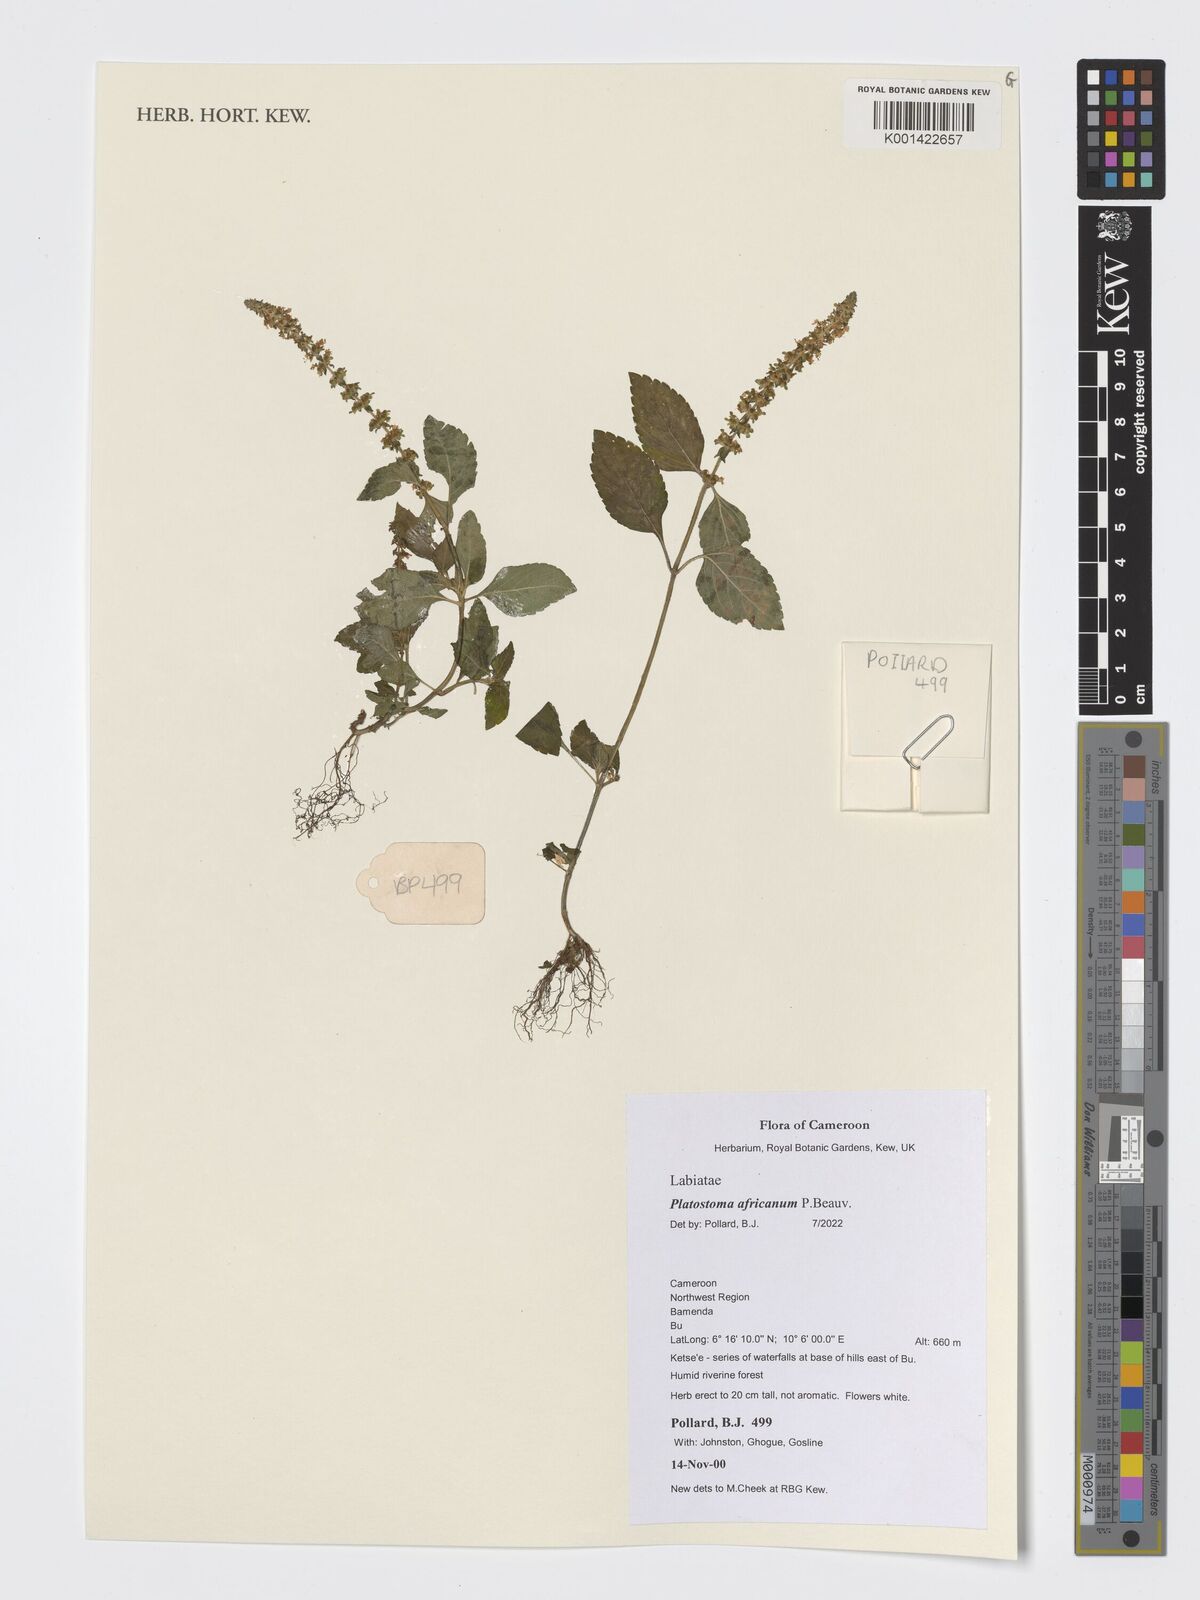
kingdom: Plantae
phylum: Tracheophyta
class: Magnoliopsida
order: Lamiales
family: Lamiaceae
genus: Platostoma
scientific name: Platostoma africanum
